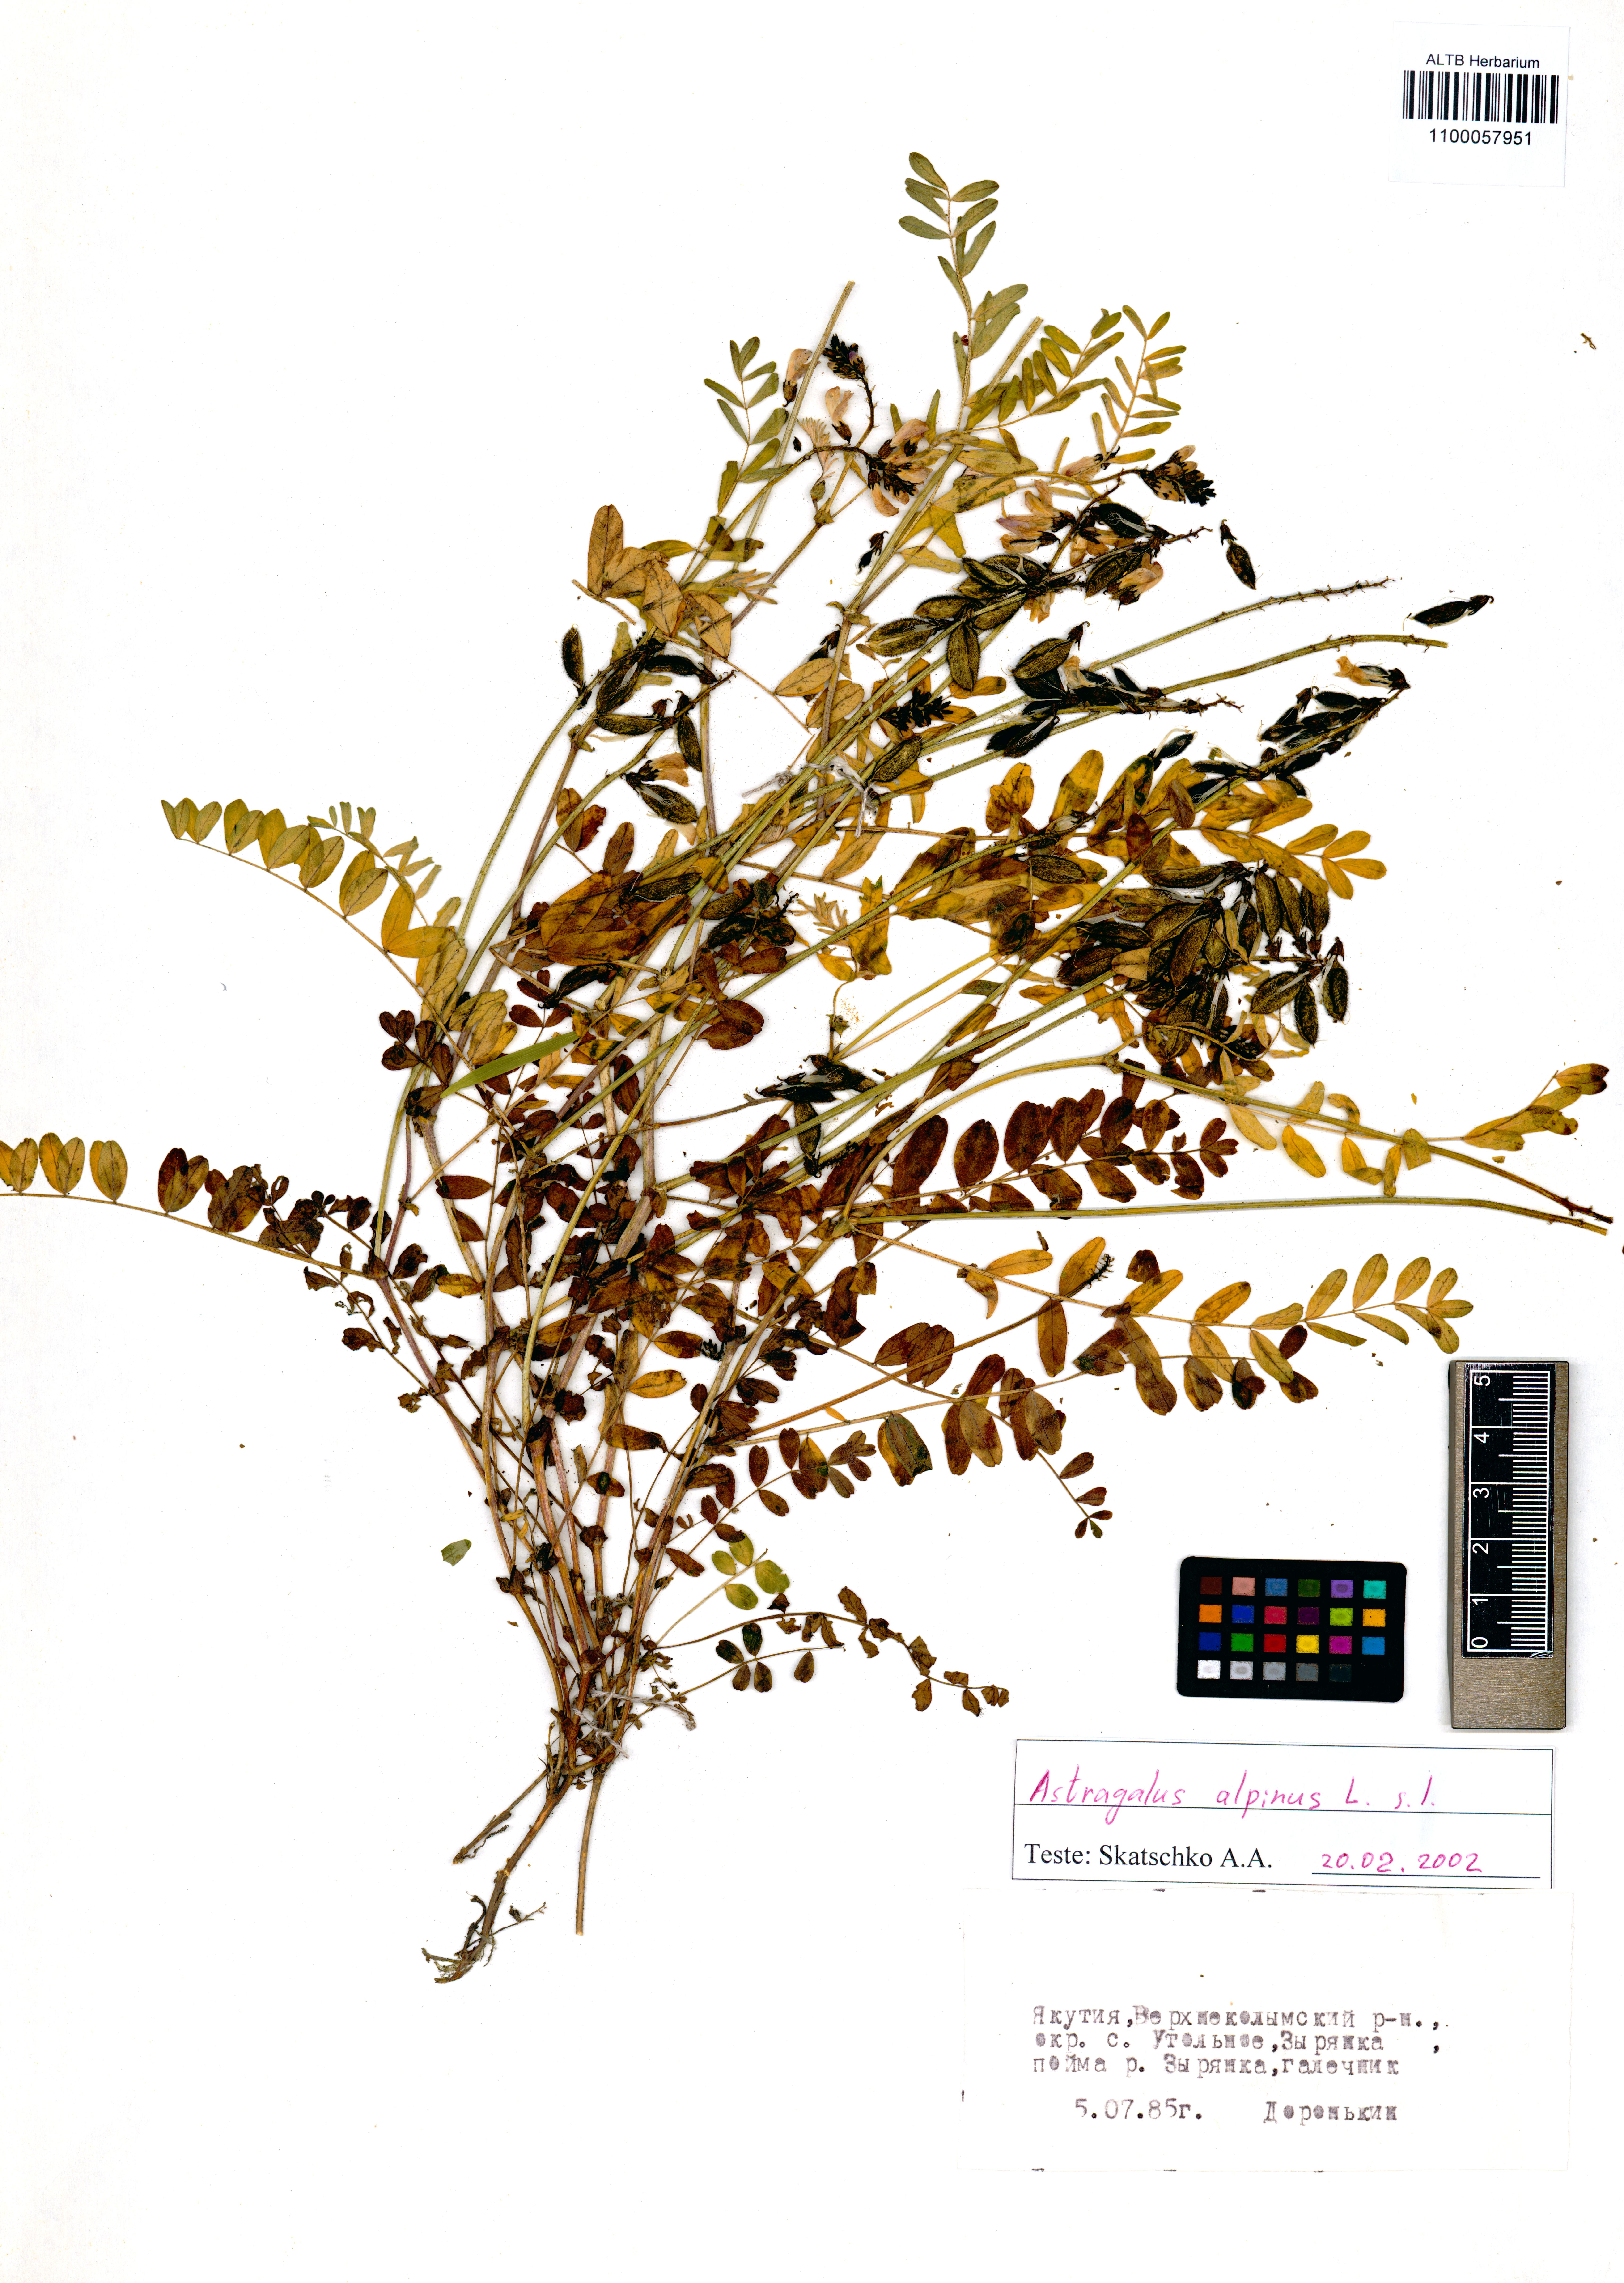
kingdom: Plantae
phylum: Tracheophyta
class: Magnoliopsida
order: Fabales
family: Fabaceae
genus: Astragalus
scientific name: Astragalus alpinus
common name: Alpine milk-vetch
